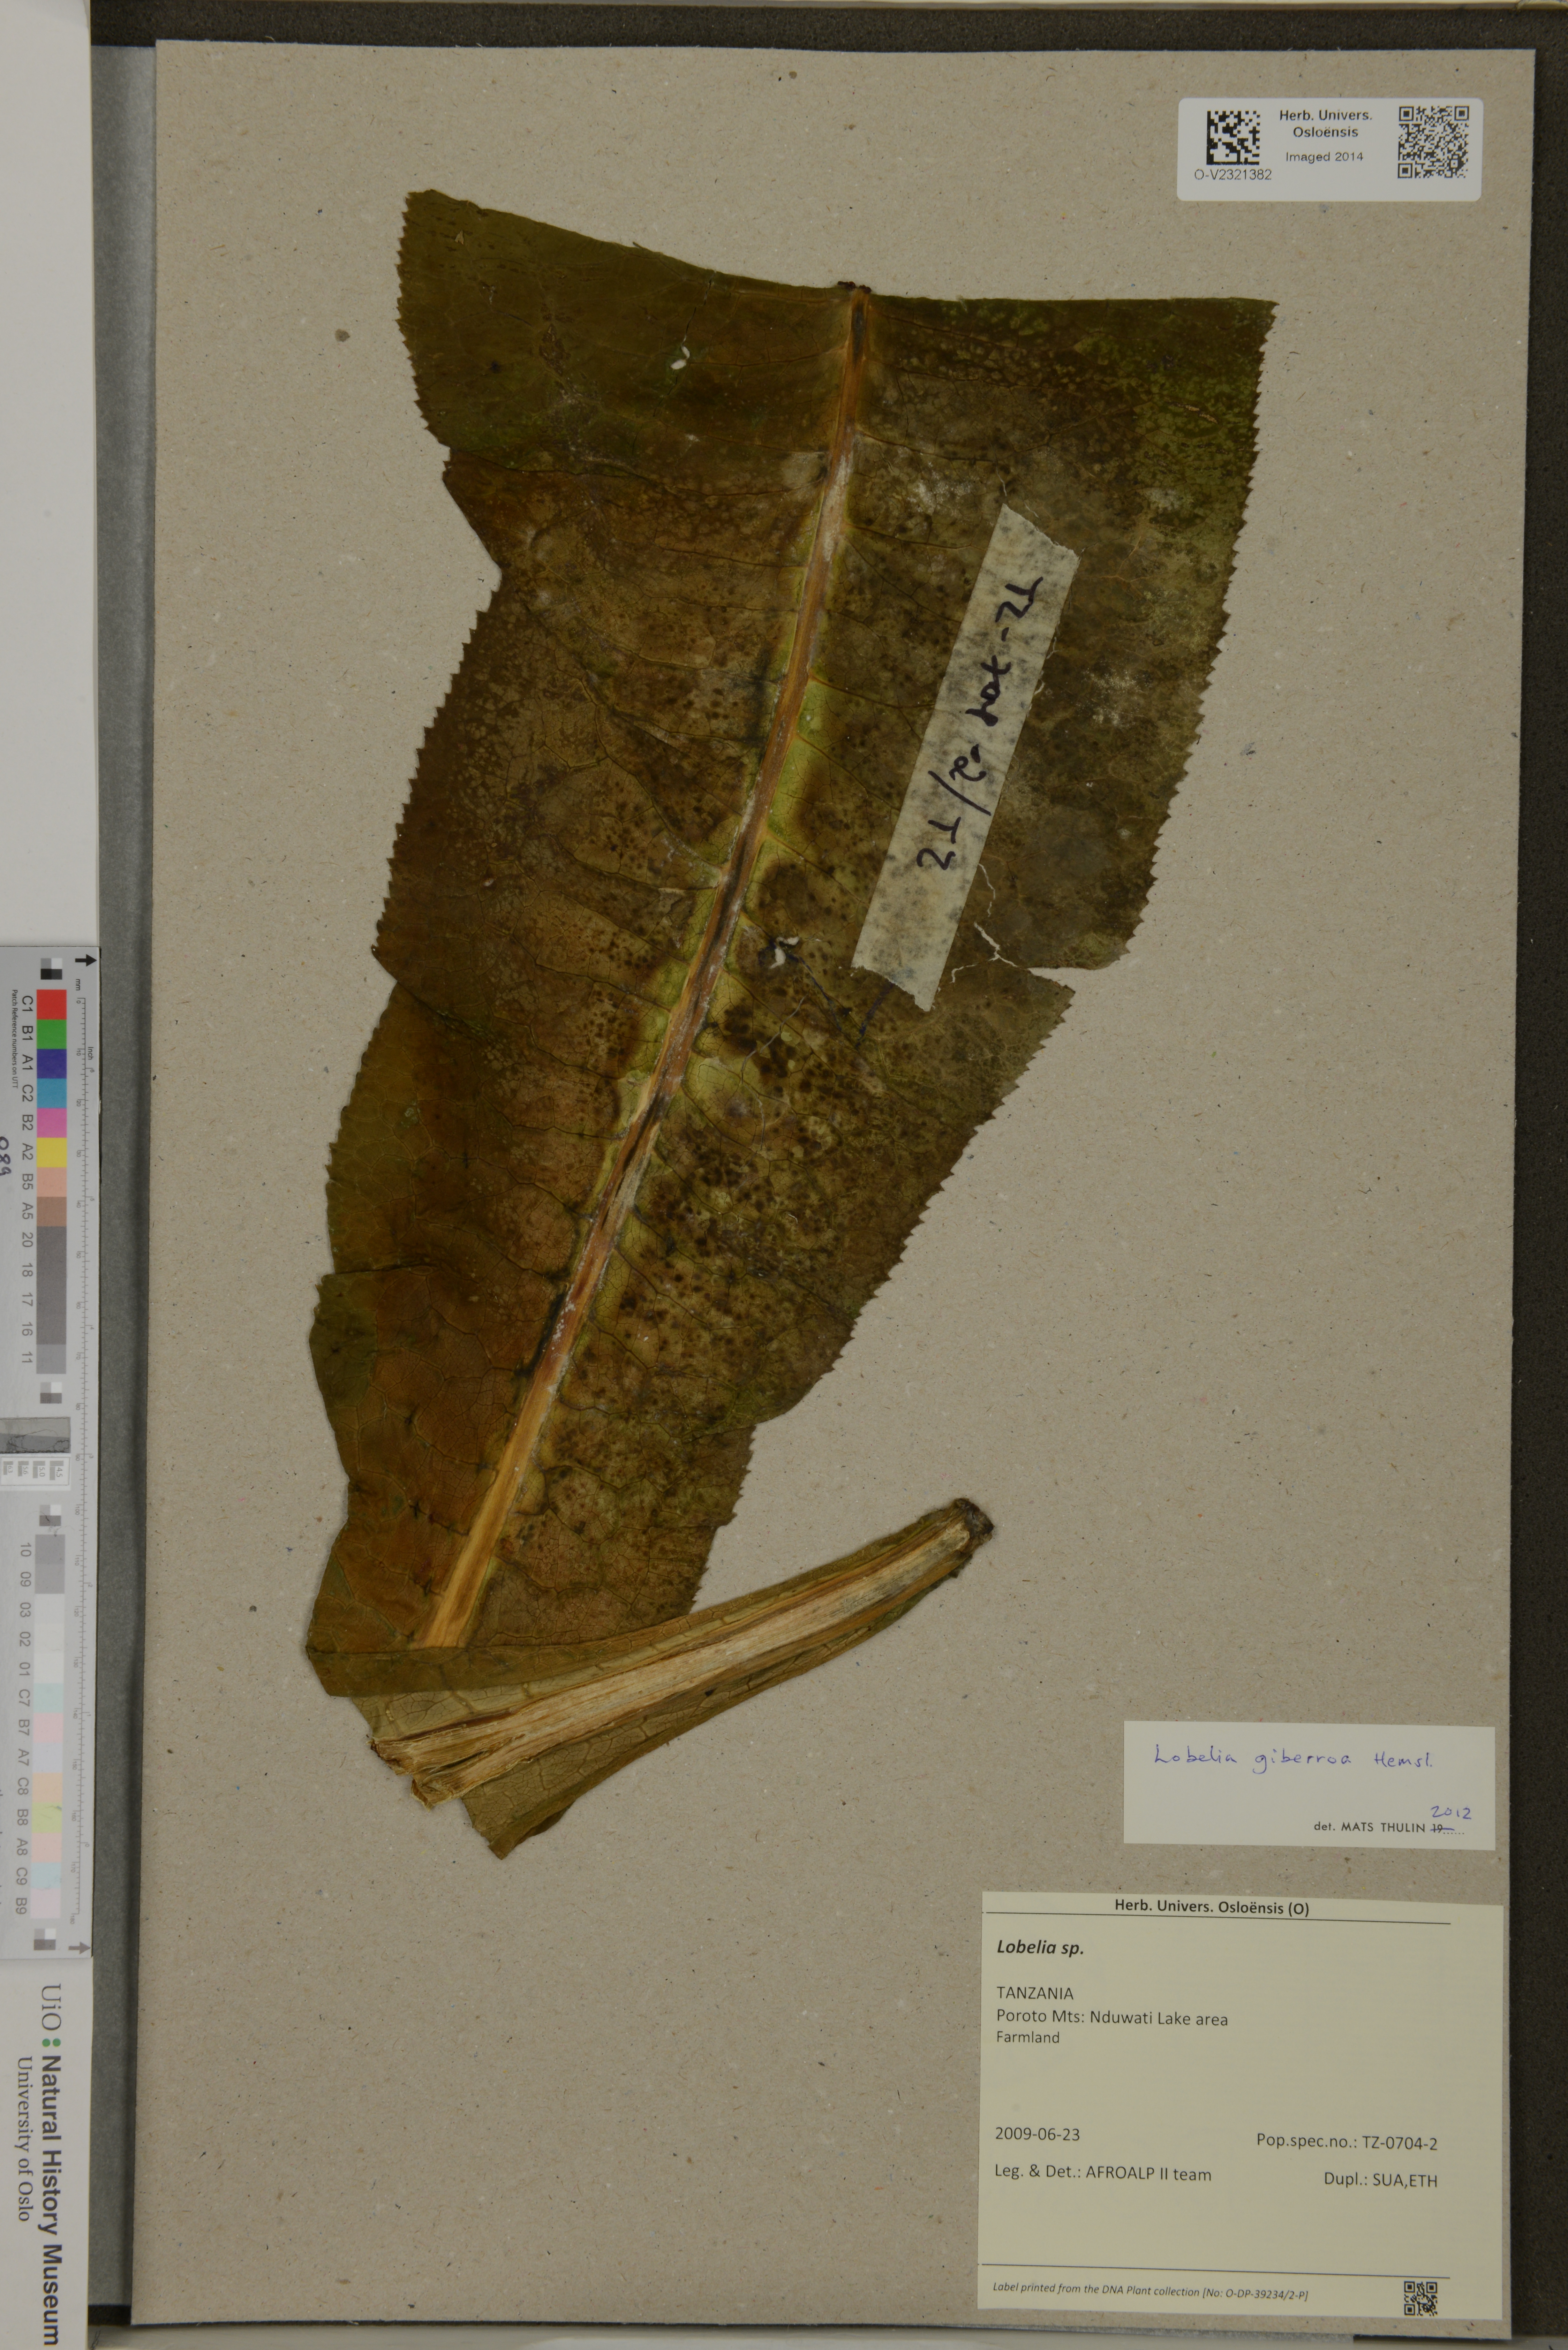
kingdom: Plantae
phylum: Tracheophyta
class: Magnoliopsida
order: Asterales
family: Campanulaceae
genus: Lobelia
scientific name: Lobelia giberroa
